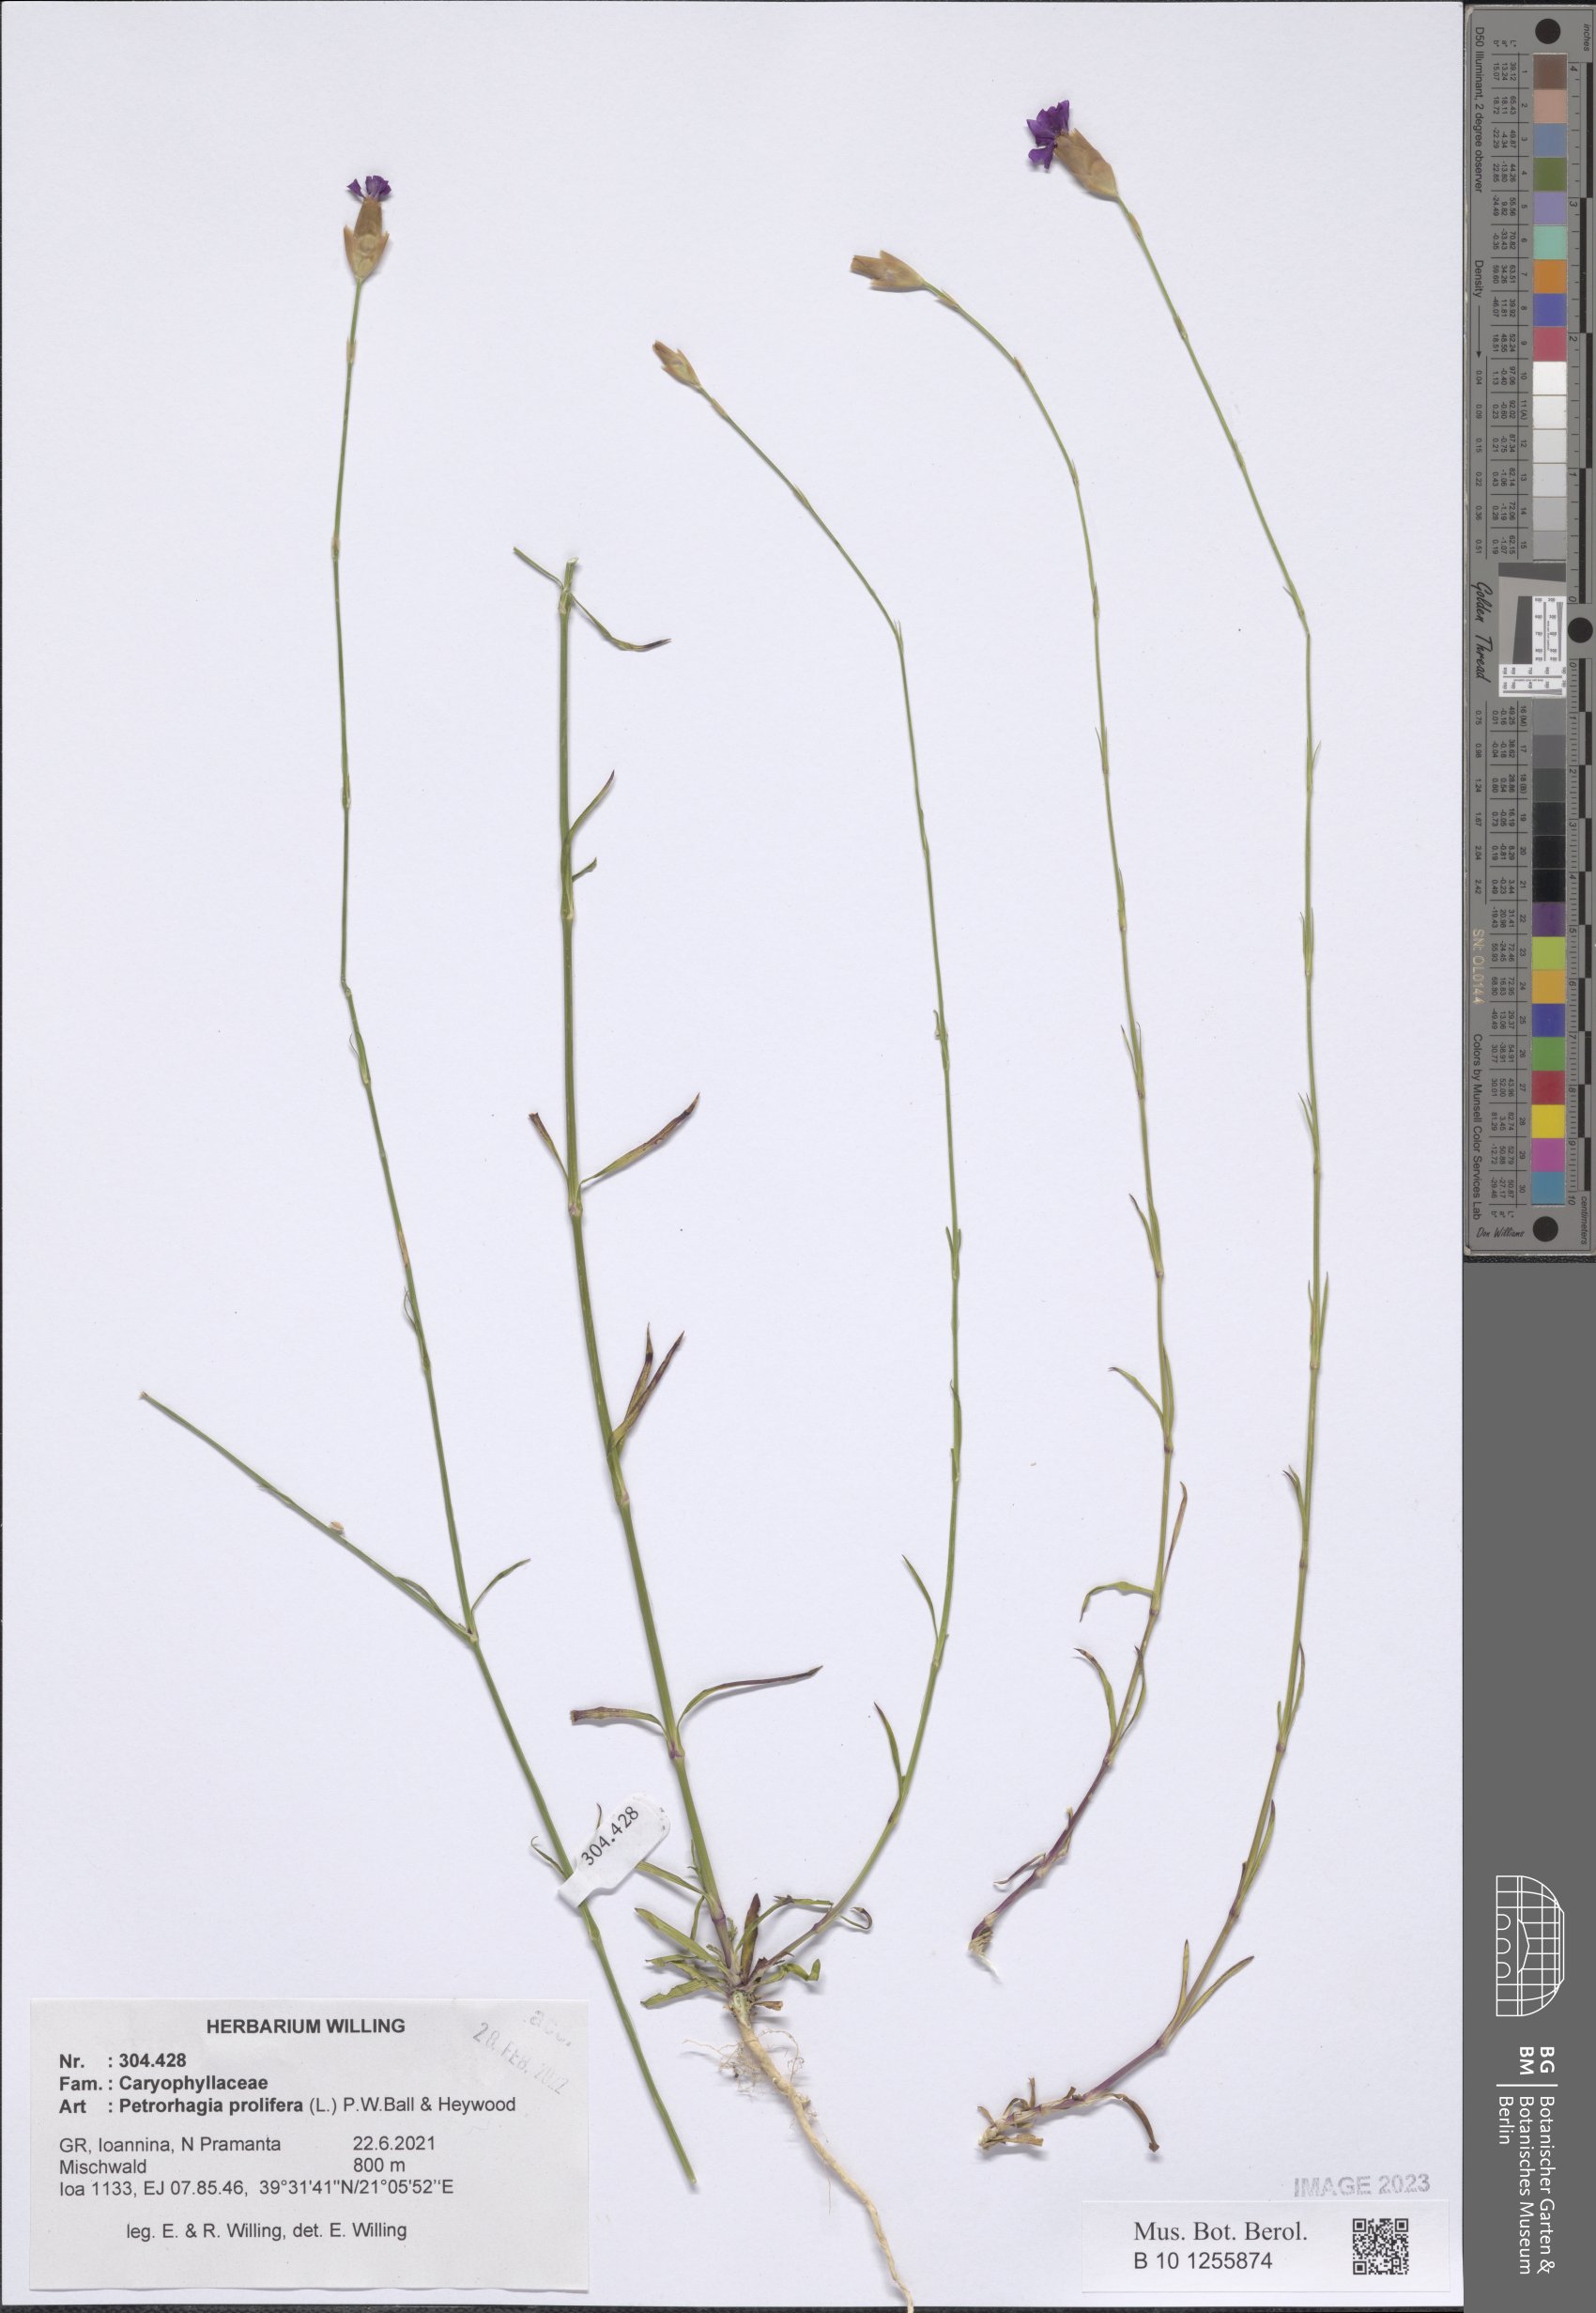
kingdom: Plantae
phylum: Tracheophyta
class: Magnoliopsida
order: Caryophyllales
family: Caryophyllaceae
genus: Petrorhagia
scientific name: Petrorhagia prolifera
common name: Proliferous pink
